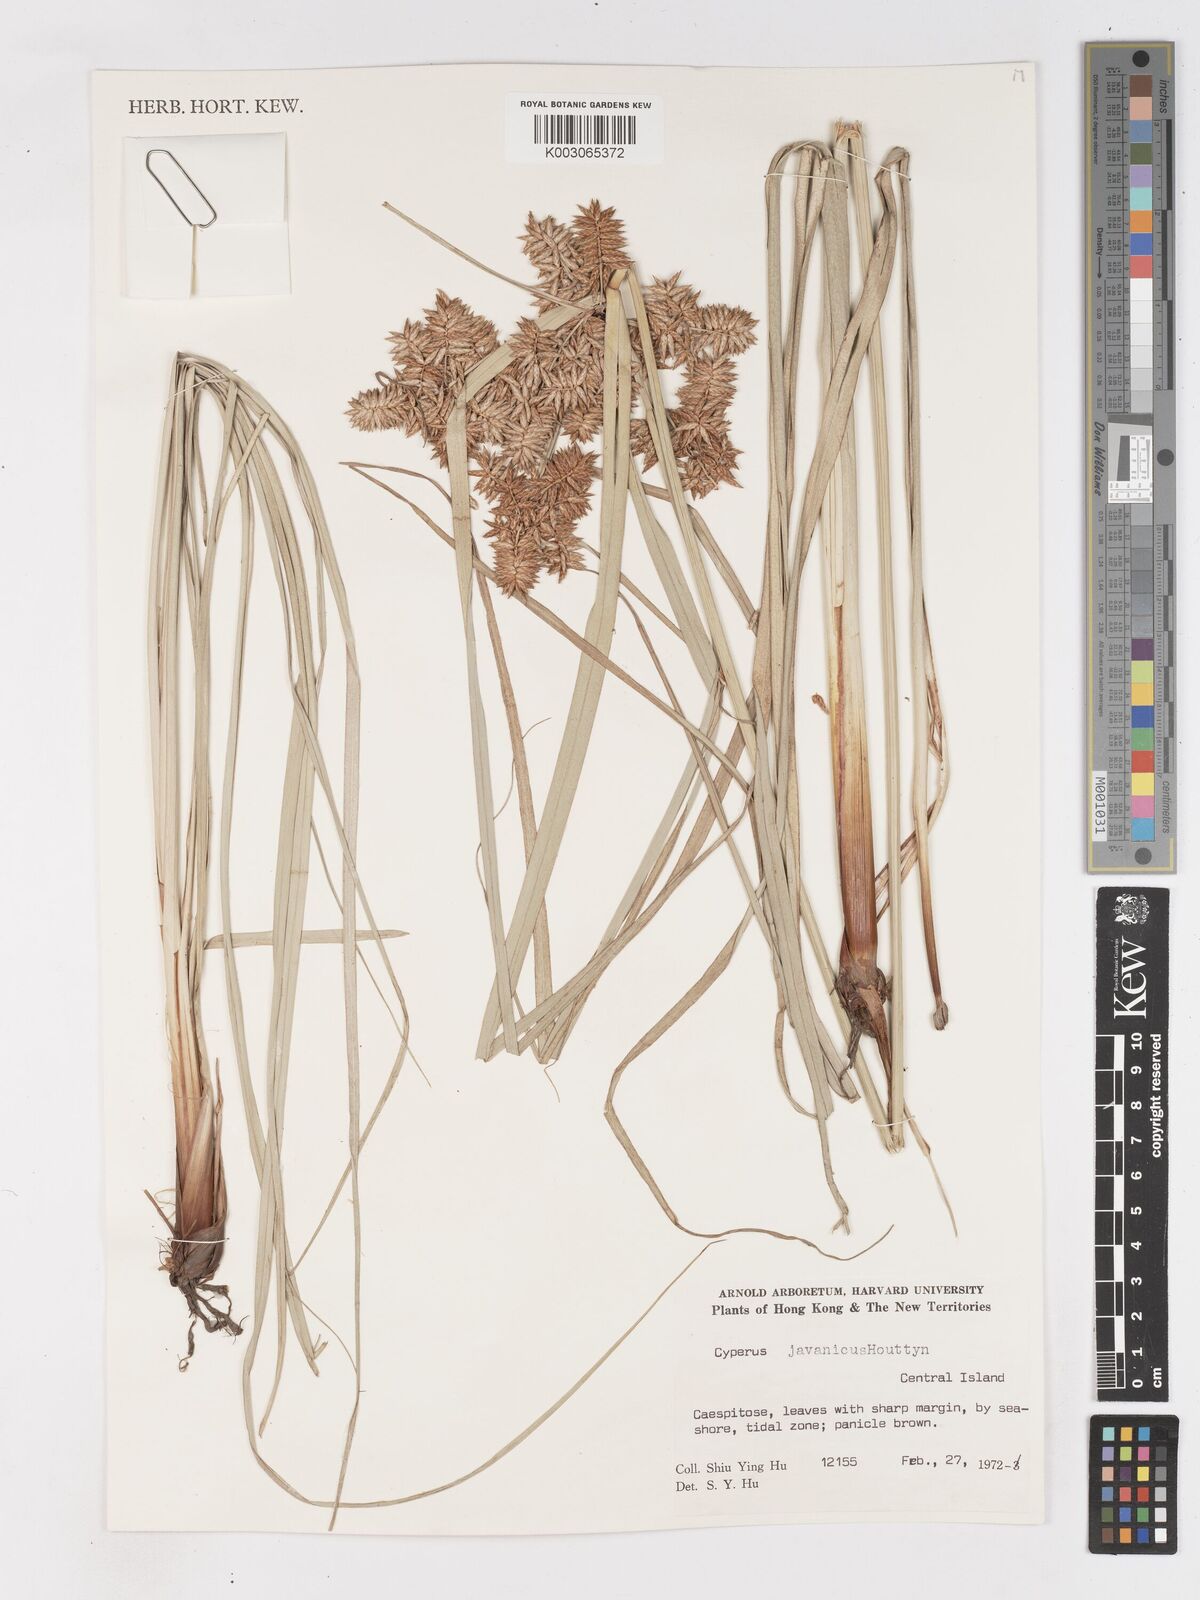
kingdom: Plantae
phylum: Tracheophyta
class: Liliopsida
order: Poales
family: Cyperaceae
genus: Cyperus
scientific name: Cyperus javanicus
